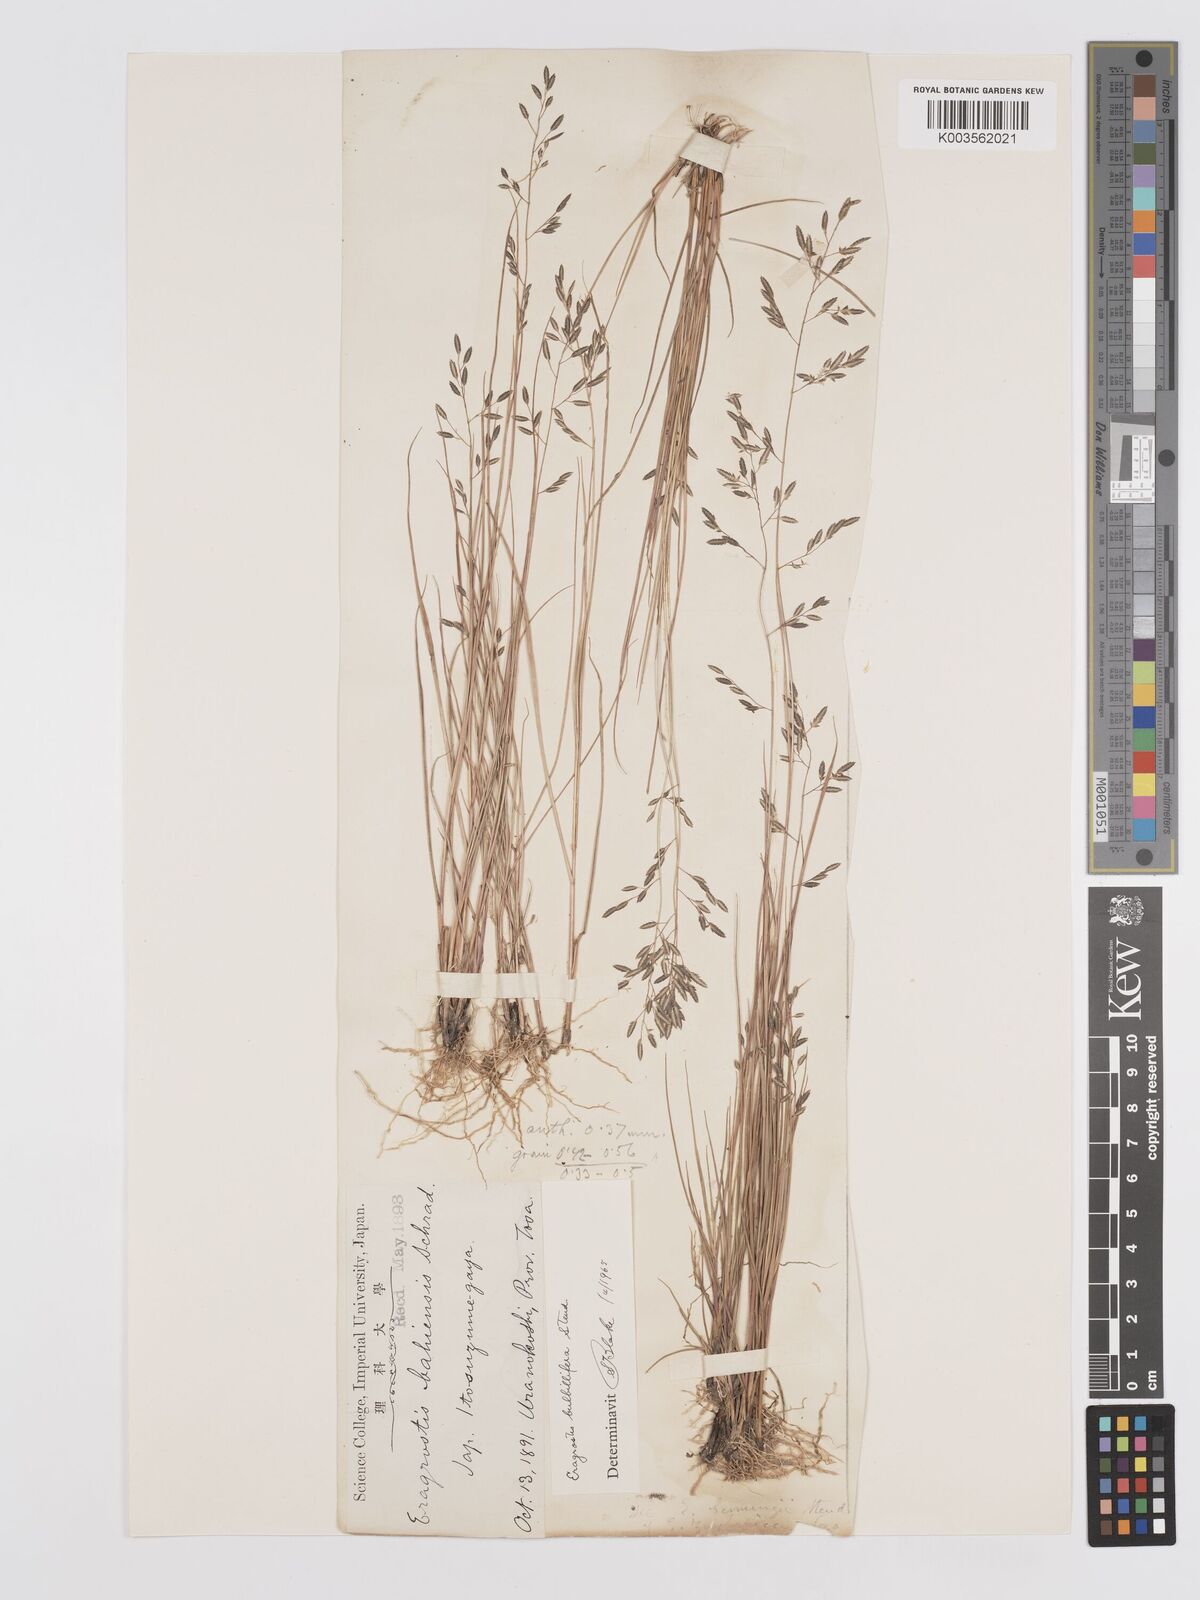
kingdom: Plantae
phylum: Tracheophyta
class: Liliopsida
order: Poales
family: Poaceae
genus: Eragrostis
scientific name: Eragrostis cumingii
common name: Cuming's lovegrass
